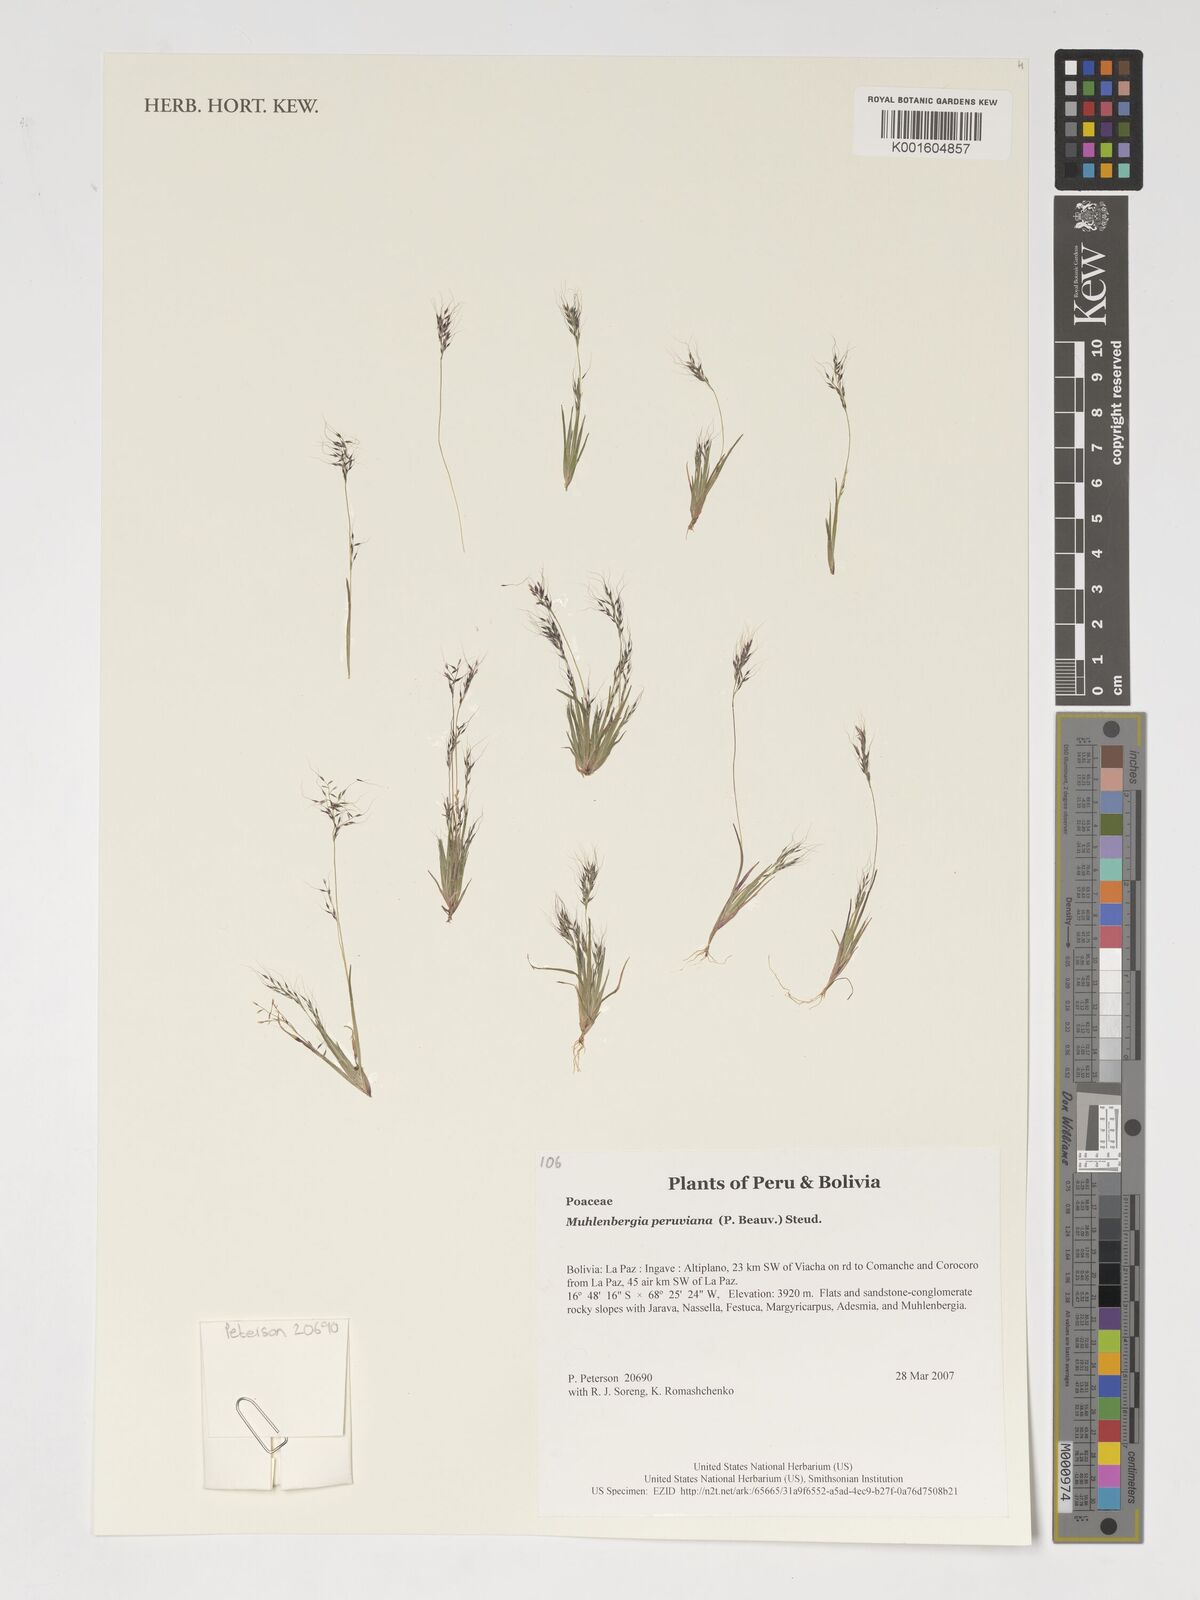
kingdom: Plantae
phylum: Tracheophyta
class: Liliopsida
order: Poales
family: Poaceae
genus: Muhlenbergia
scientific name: Muhlenbergia peruviana
